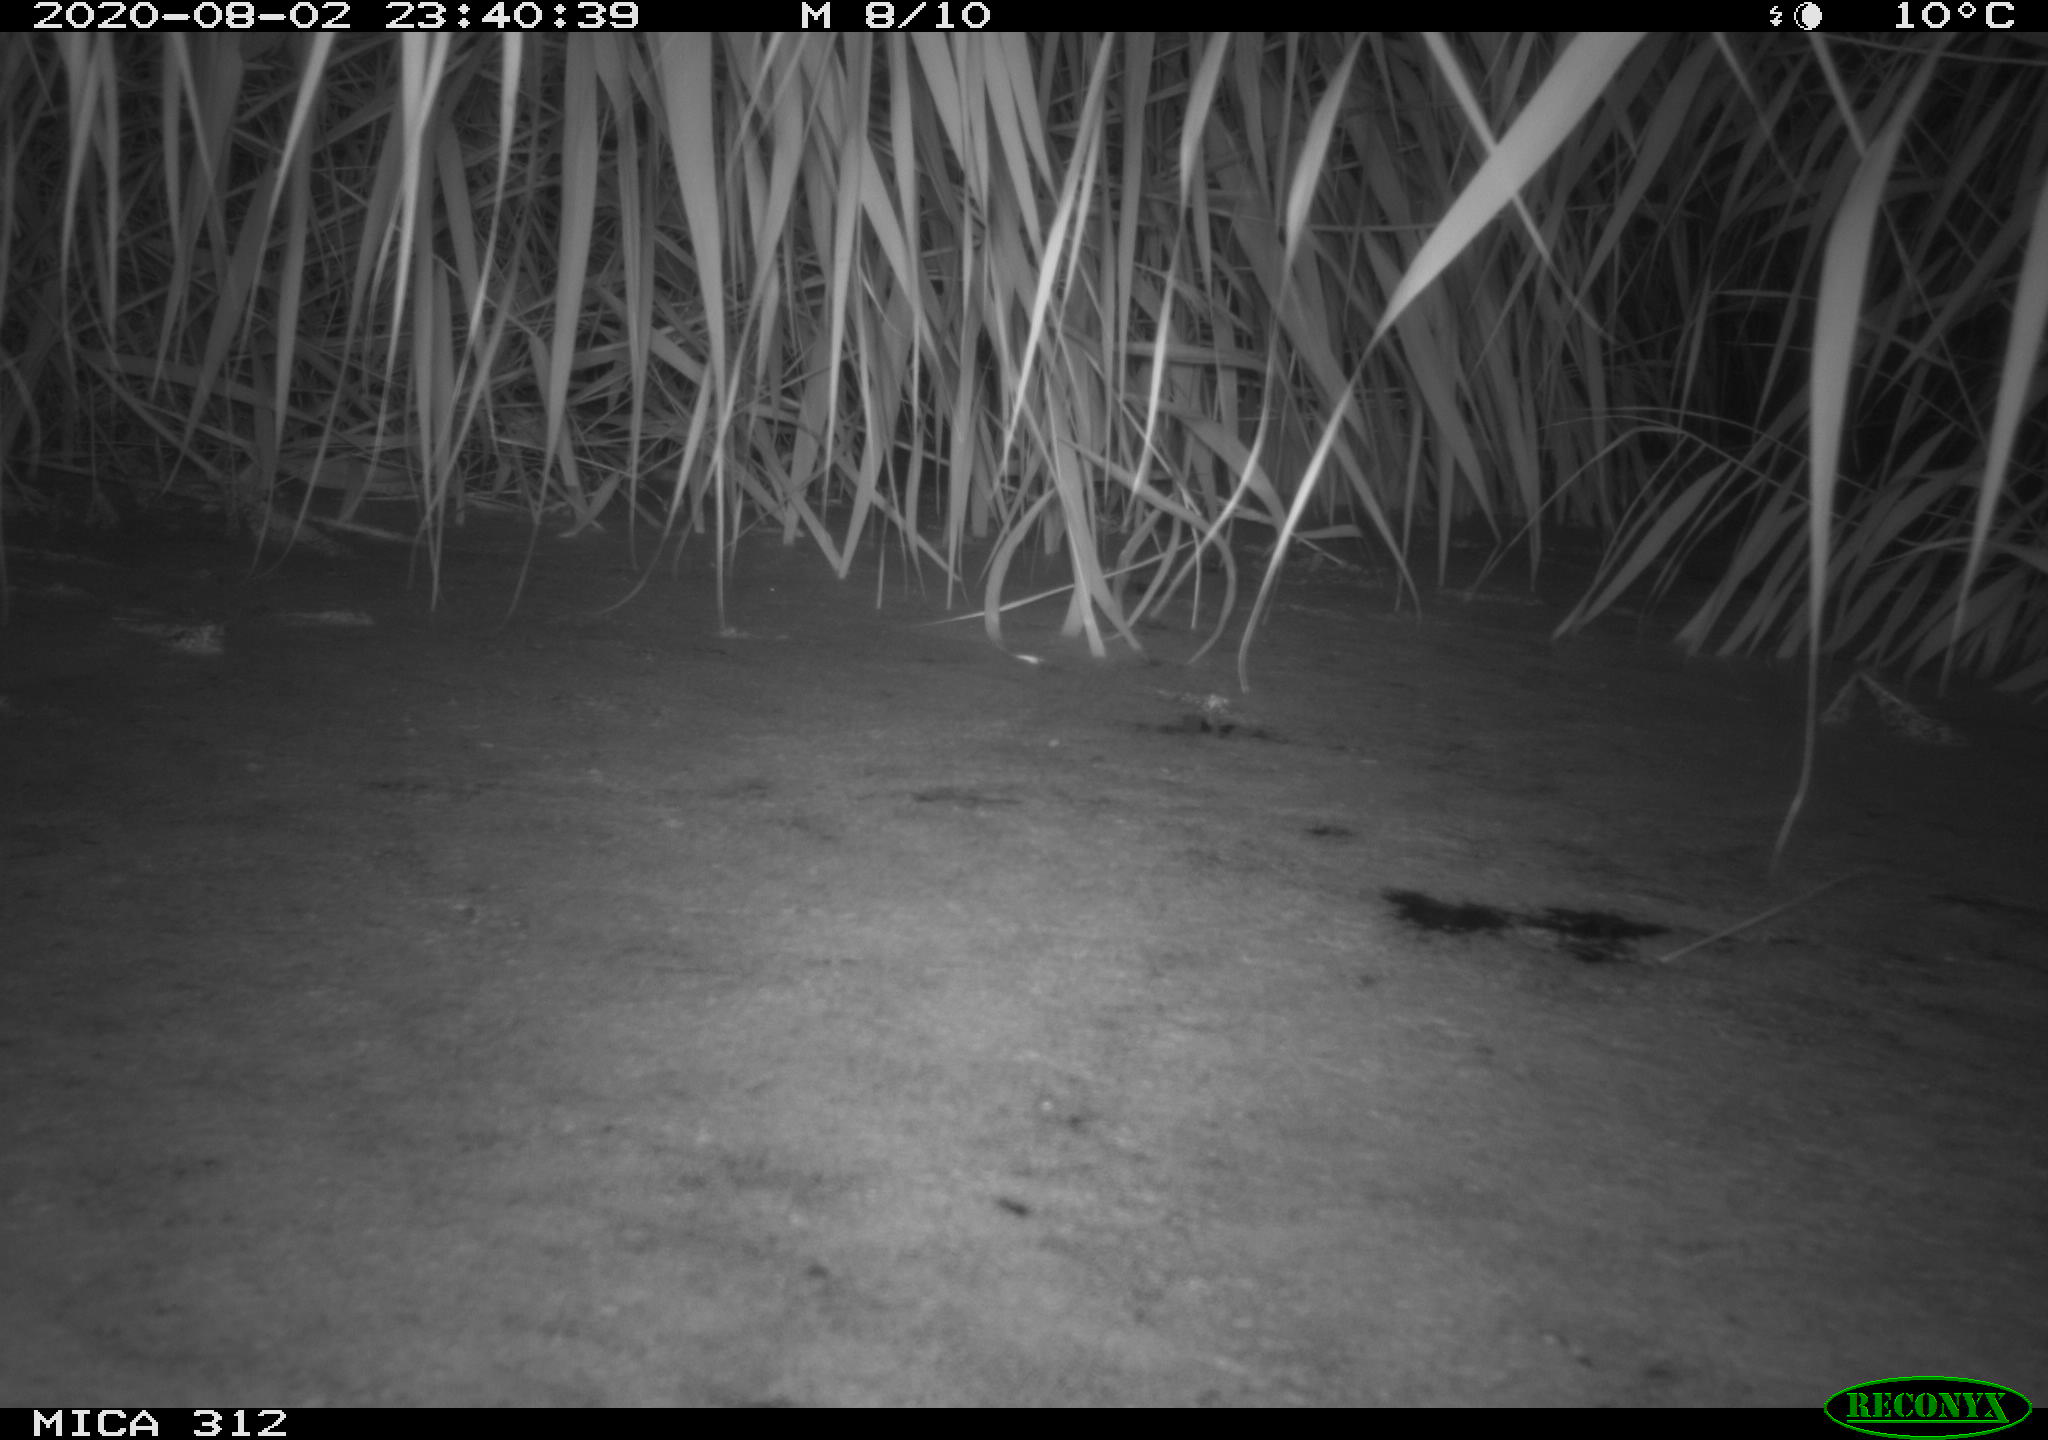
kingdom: Animalia
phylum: Chordata
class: Mammalia
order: Rodentia
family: Muridae
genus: Rattus
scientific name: Rattus norvegicus
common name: Brown rat
